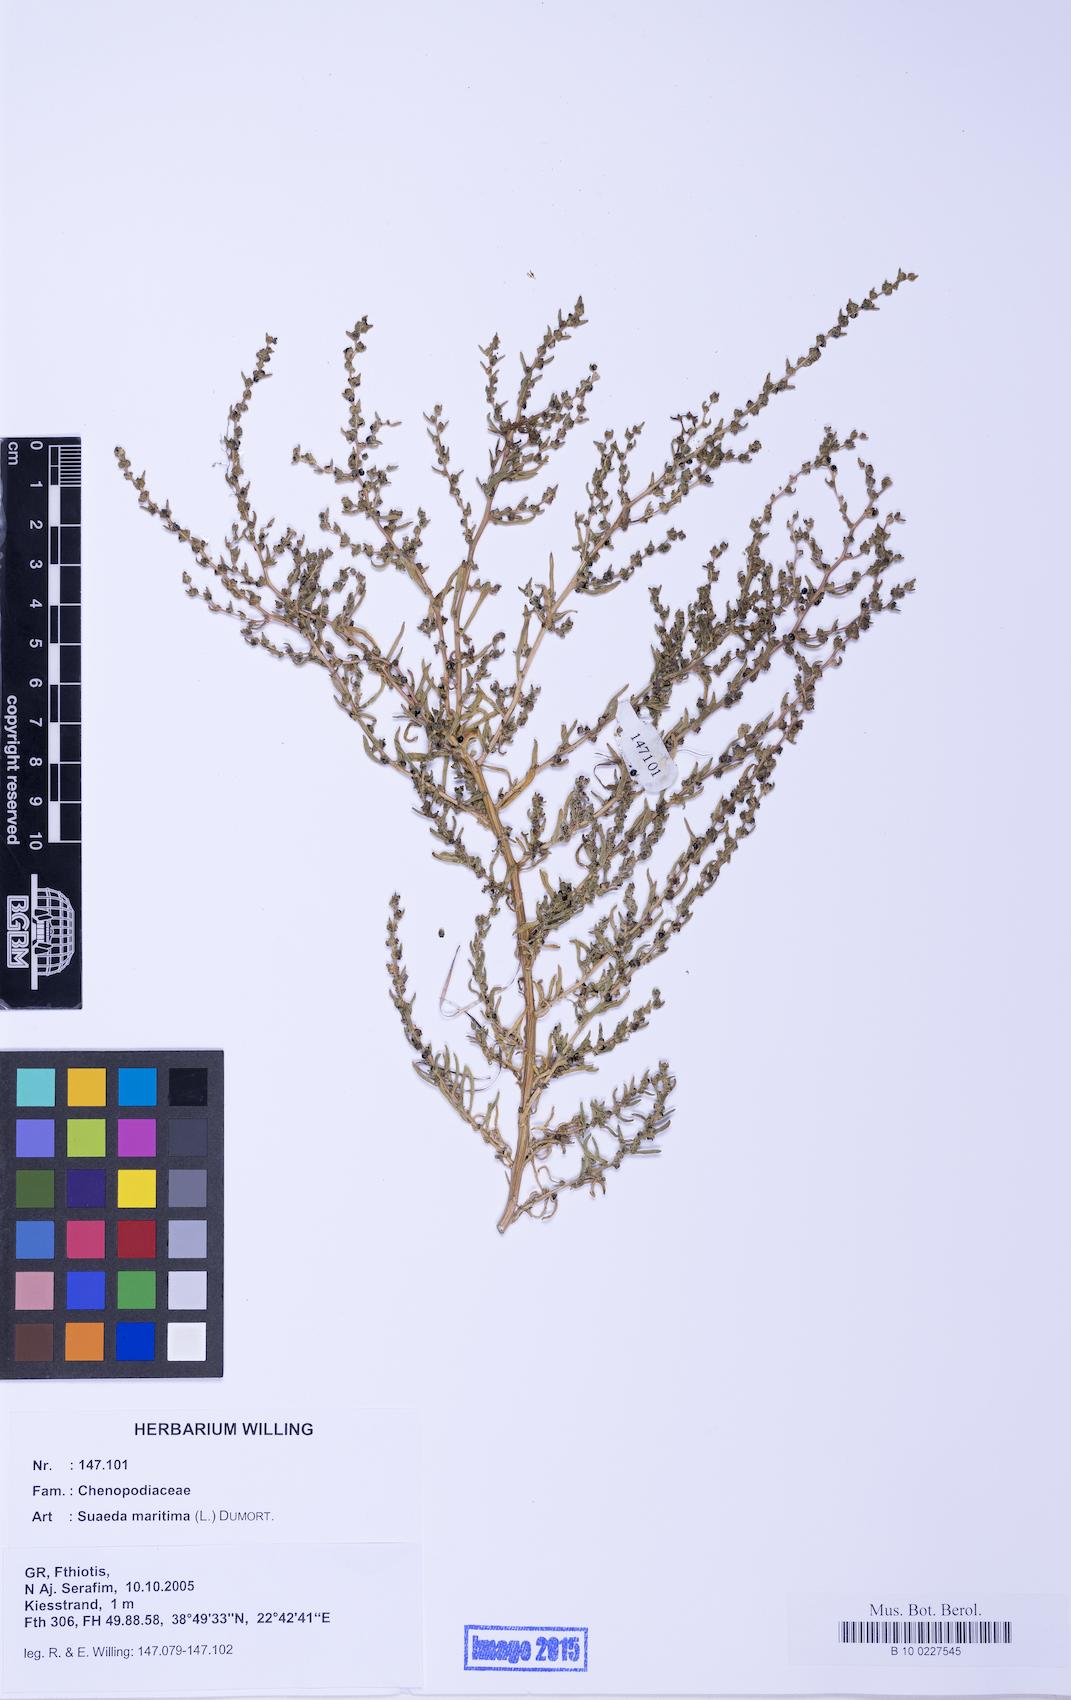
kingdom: Plantae
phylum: Tracheophyta
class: Magnoliopsida
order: Caryophyllales
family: Amaranthaceae
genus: Suaeda
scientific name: Suaeda maritima
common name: Annual sea-blite
